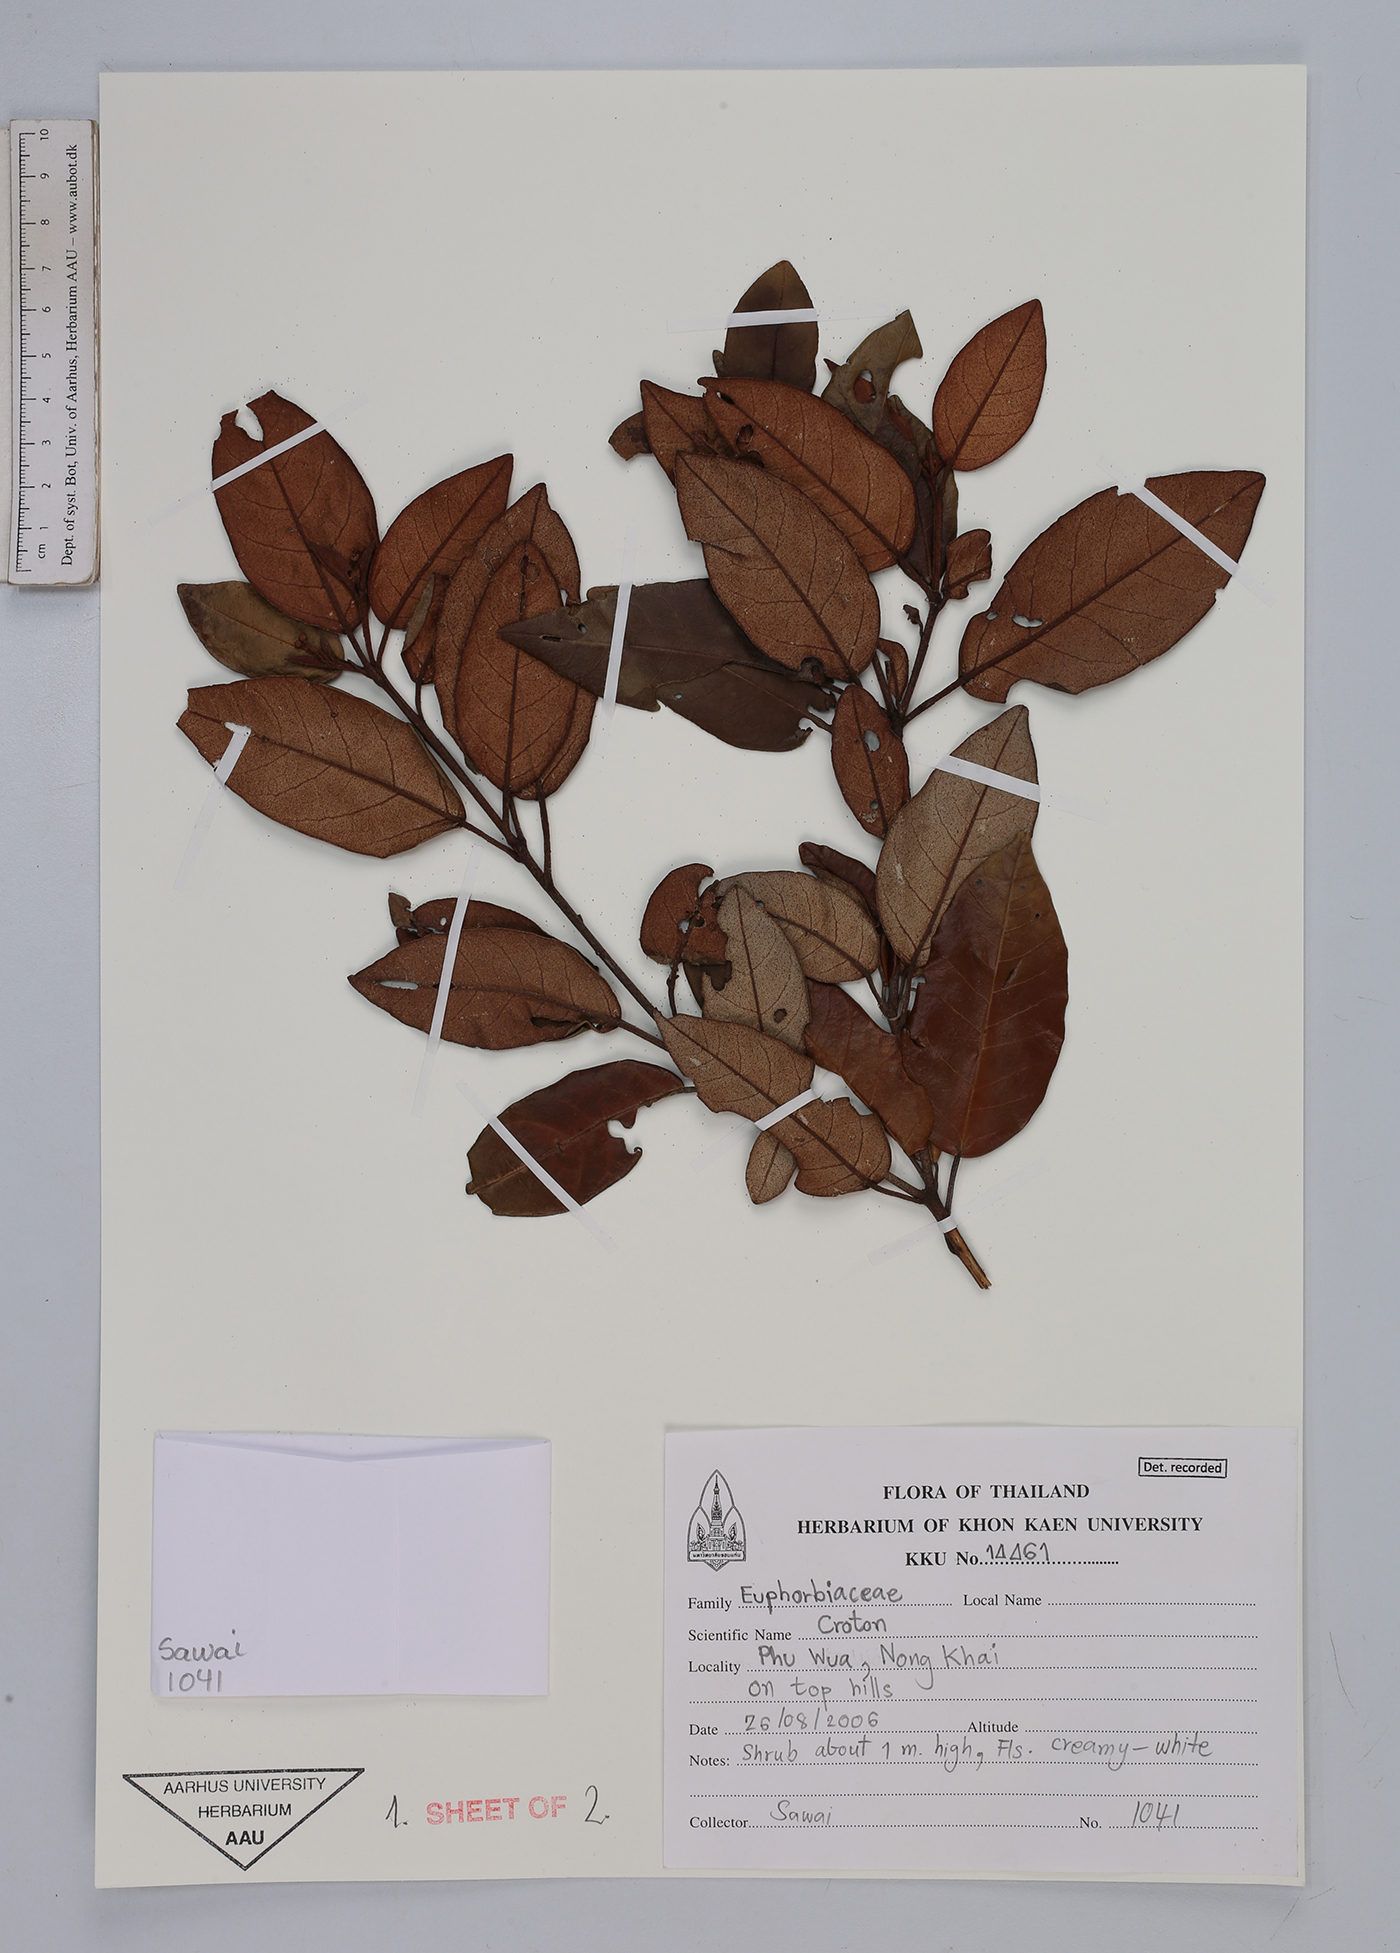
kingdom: Plantae
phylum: Tracheophyta
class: Magnoliopsida
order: Malpighiales
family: Euphorbiaceae
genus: Croton
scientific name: Croton
